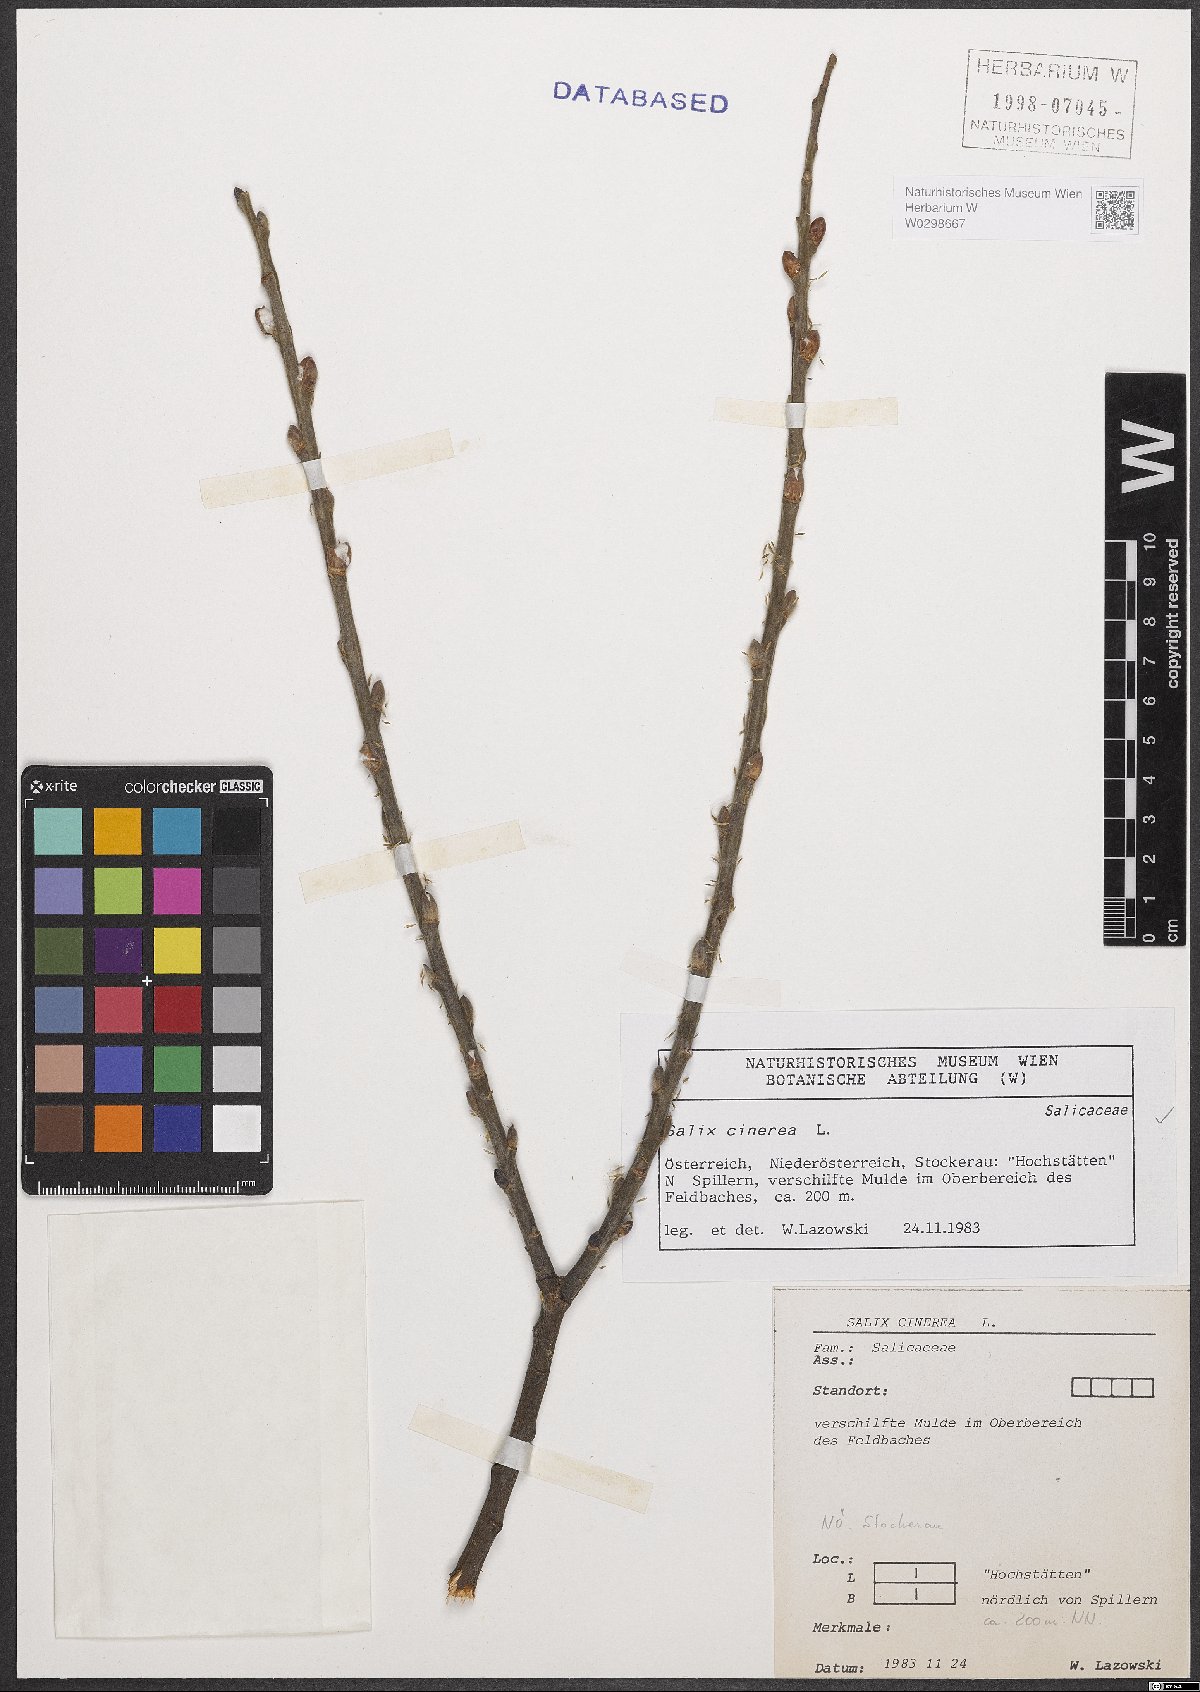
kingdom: Plantae
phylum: Tracheophyta
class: Magnoliopsida
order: Malpighiales
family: Salicaceae
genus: Salix
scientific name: Salix cinerea
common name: Common sallow
